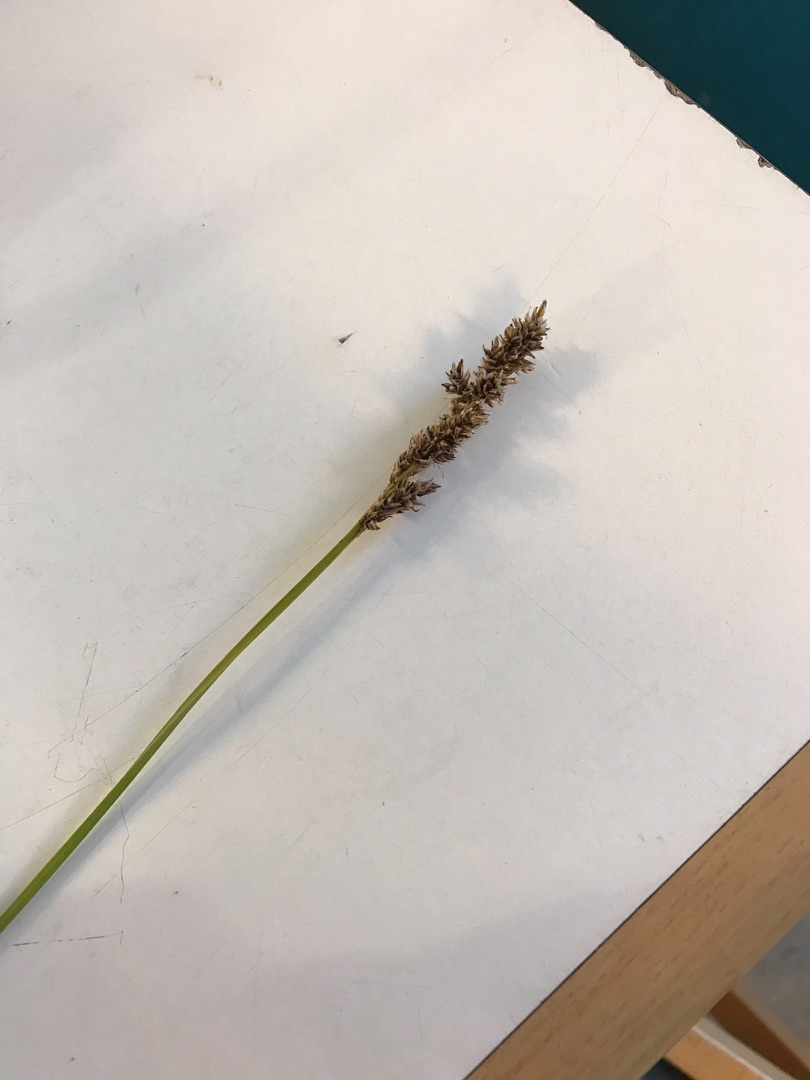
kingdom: Plantae
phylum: Tracheophyta
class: Liliopsida
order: Poales
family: Cyperaceae
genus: Carex
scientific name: Carex paniculata
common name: Top-star
